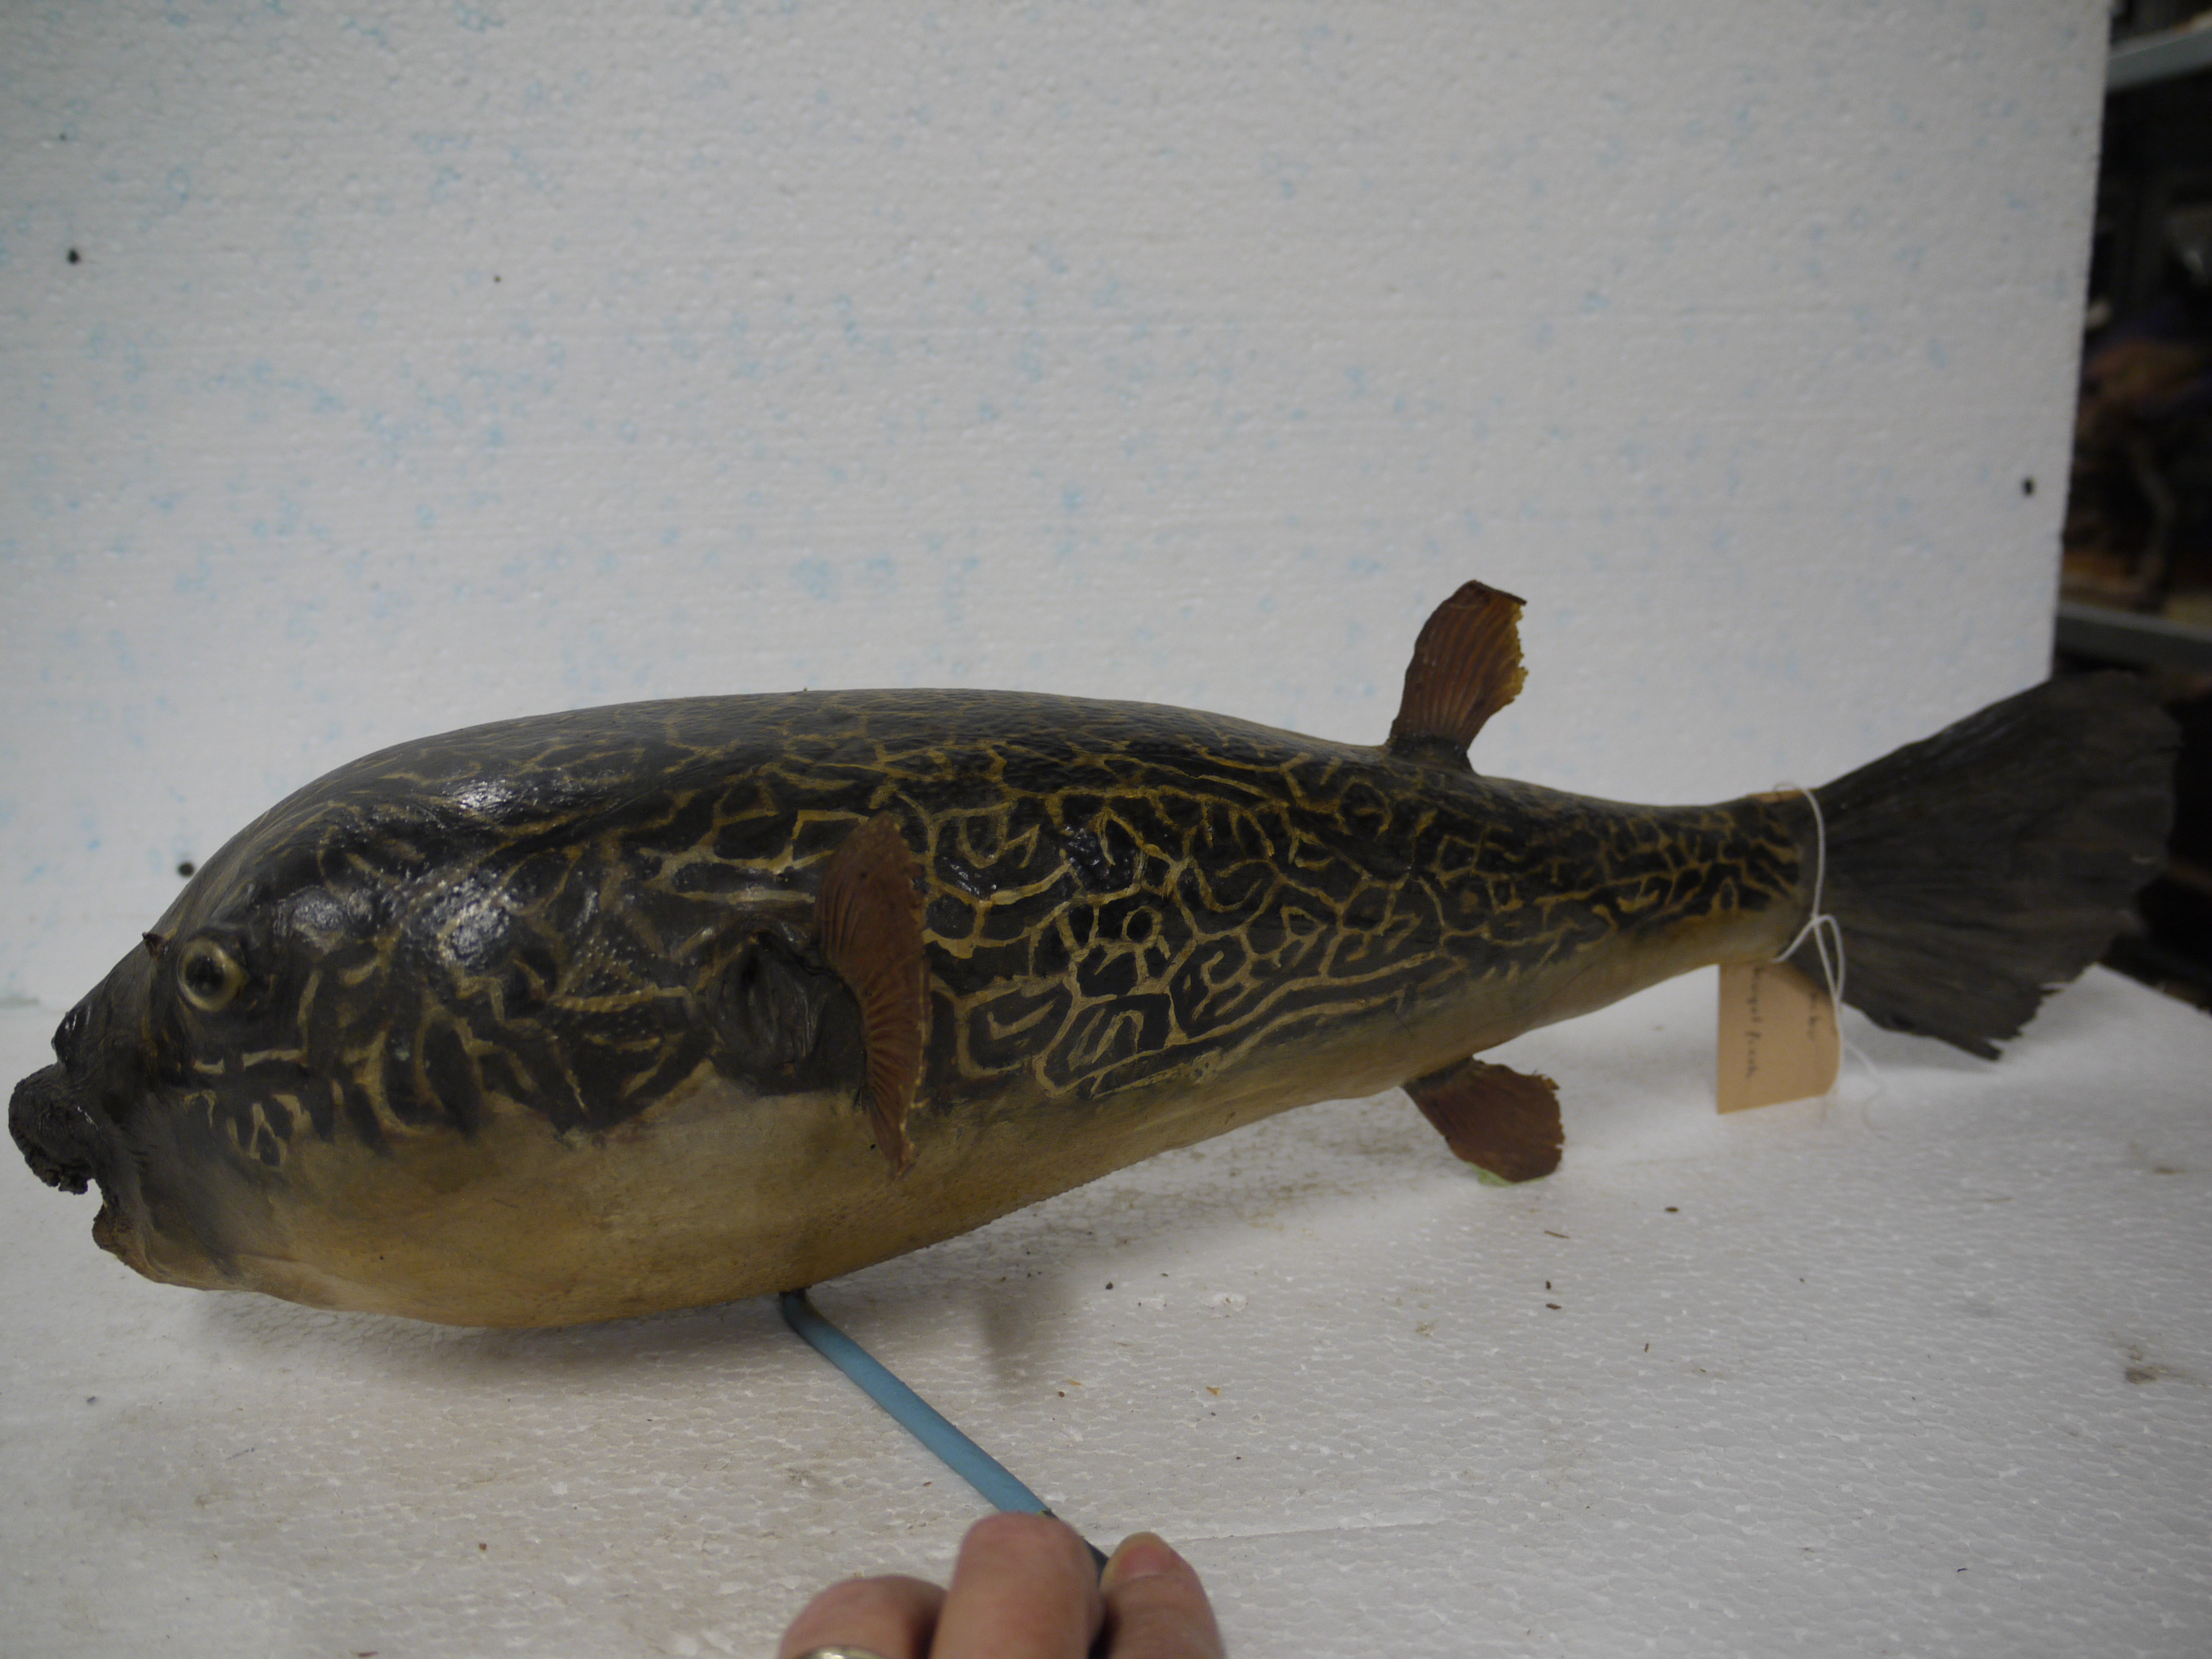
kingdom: Animalia
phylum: Chordata
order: Tetraodontiformes
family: Tetraodontidae
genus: Tetraodon
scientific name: Tetraodon mbu
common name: Fresh water puffer fish
